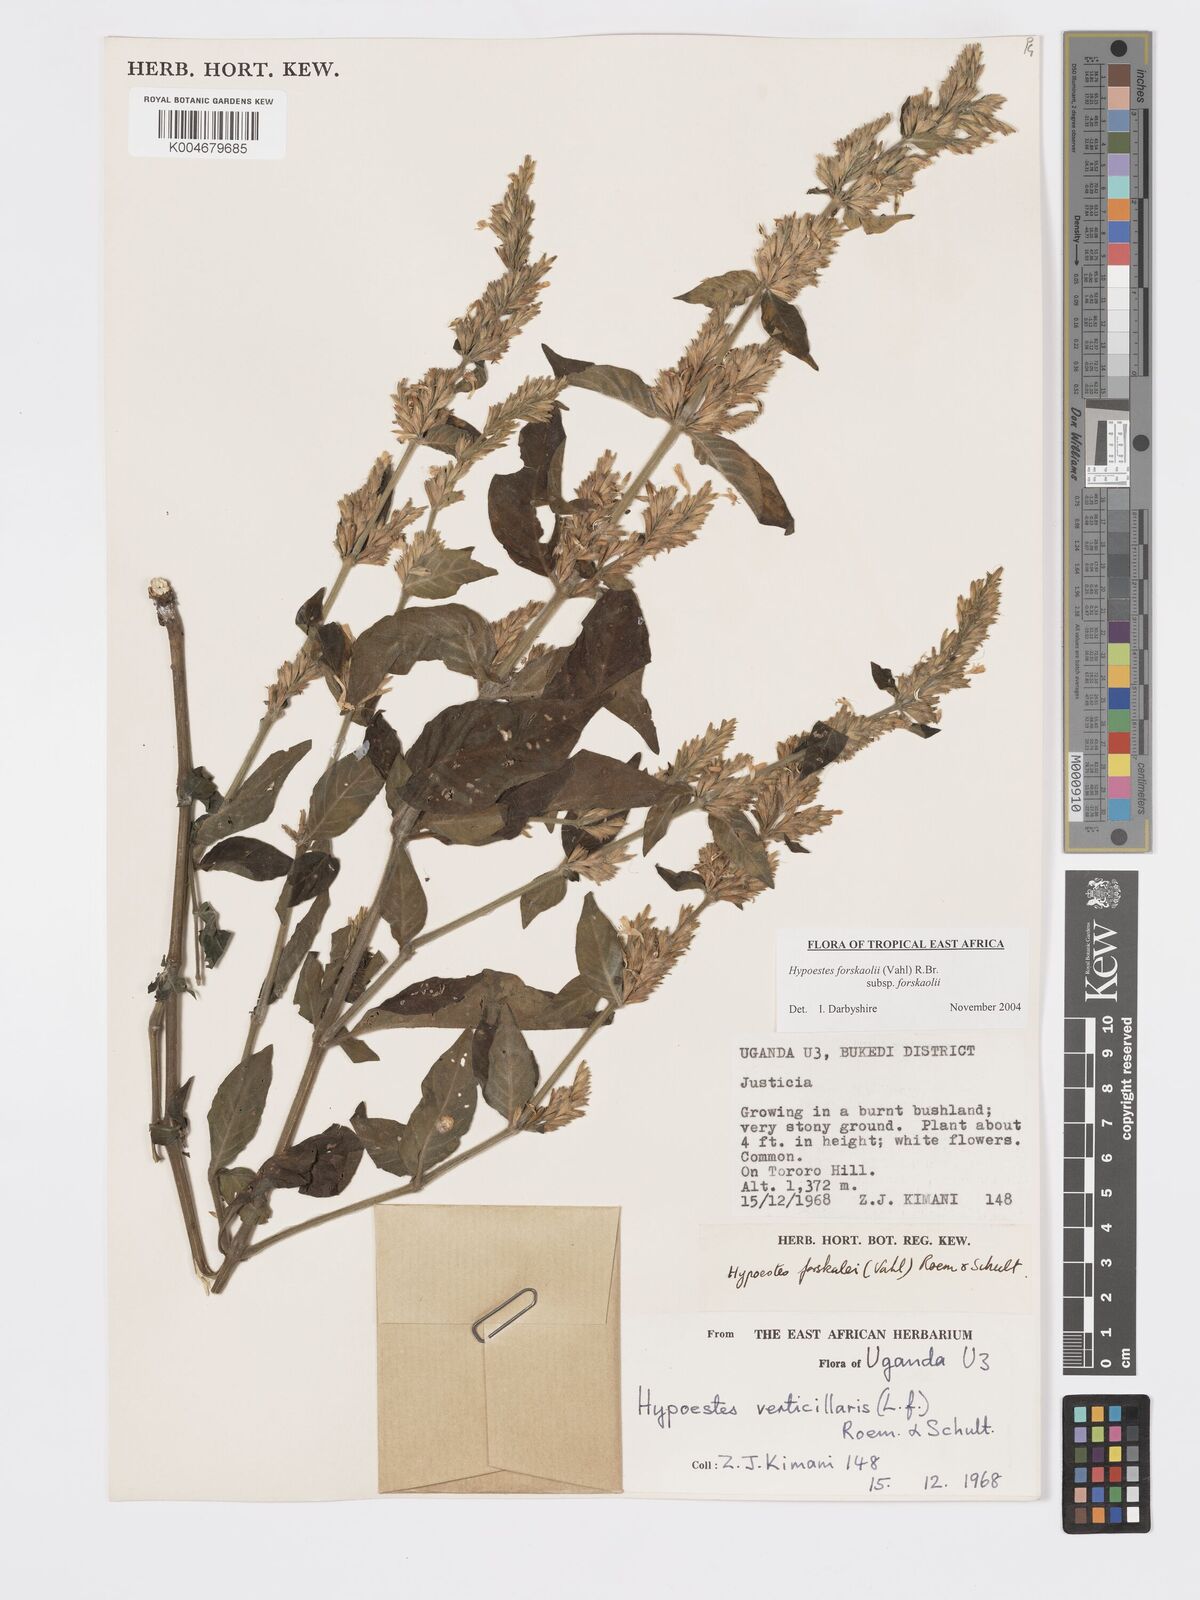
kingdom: Plantae
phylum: Tracheophyta
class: Magnoliopsida
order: Lamiales
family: Acanthaceae
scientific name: Acanthaceae
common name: Acanthaceae
